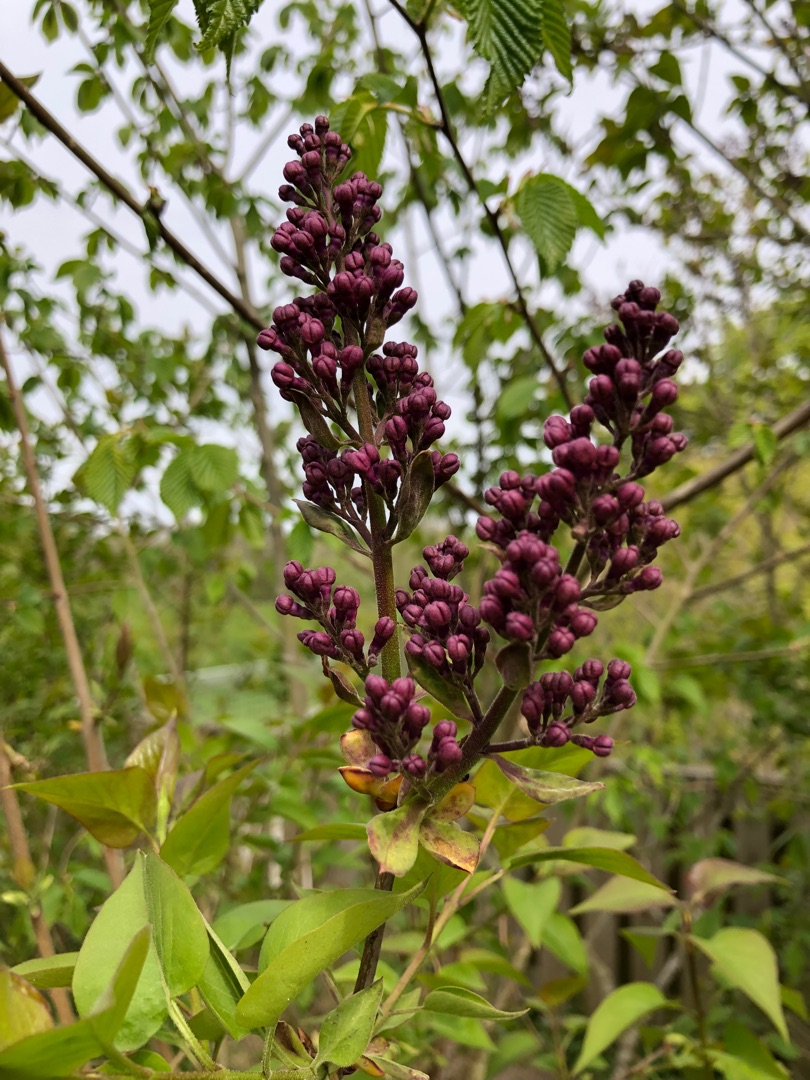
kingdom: Plantae
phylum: Tracheophyta
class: Magnoliopsida
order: Lamiales
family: Oleaceae
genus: Syringa
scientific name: Syringa vulgaris
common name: Syren
